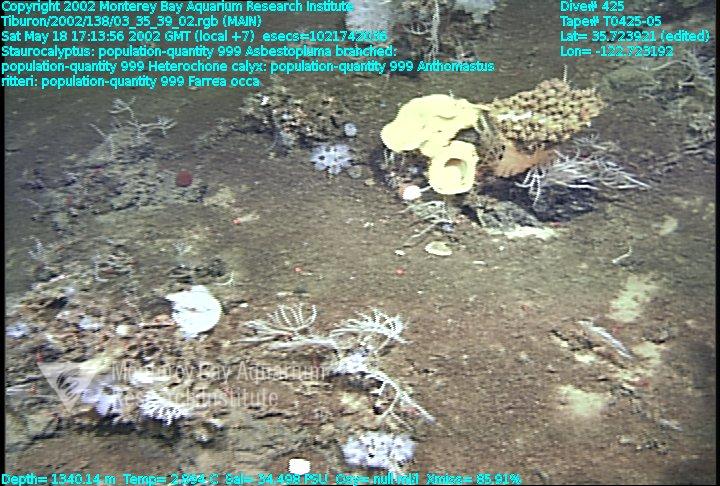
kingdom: Animalia
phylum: Porifera
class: Hexactinellida
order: Sceptrulophora
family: Aphrocallistidae
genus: Heterochone
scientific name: Heterochone calyx
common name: Fingered goblet glass sponge
